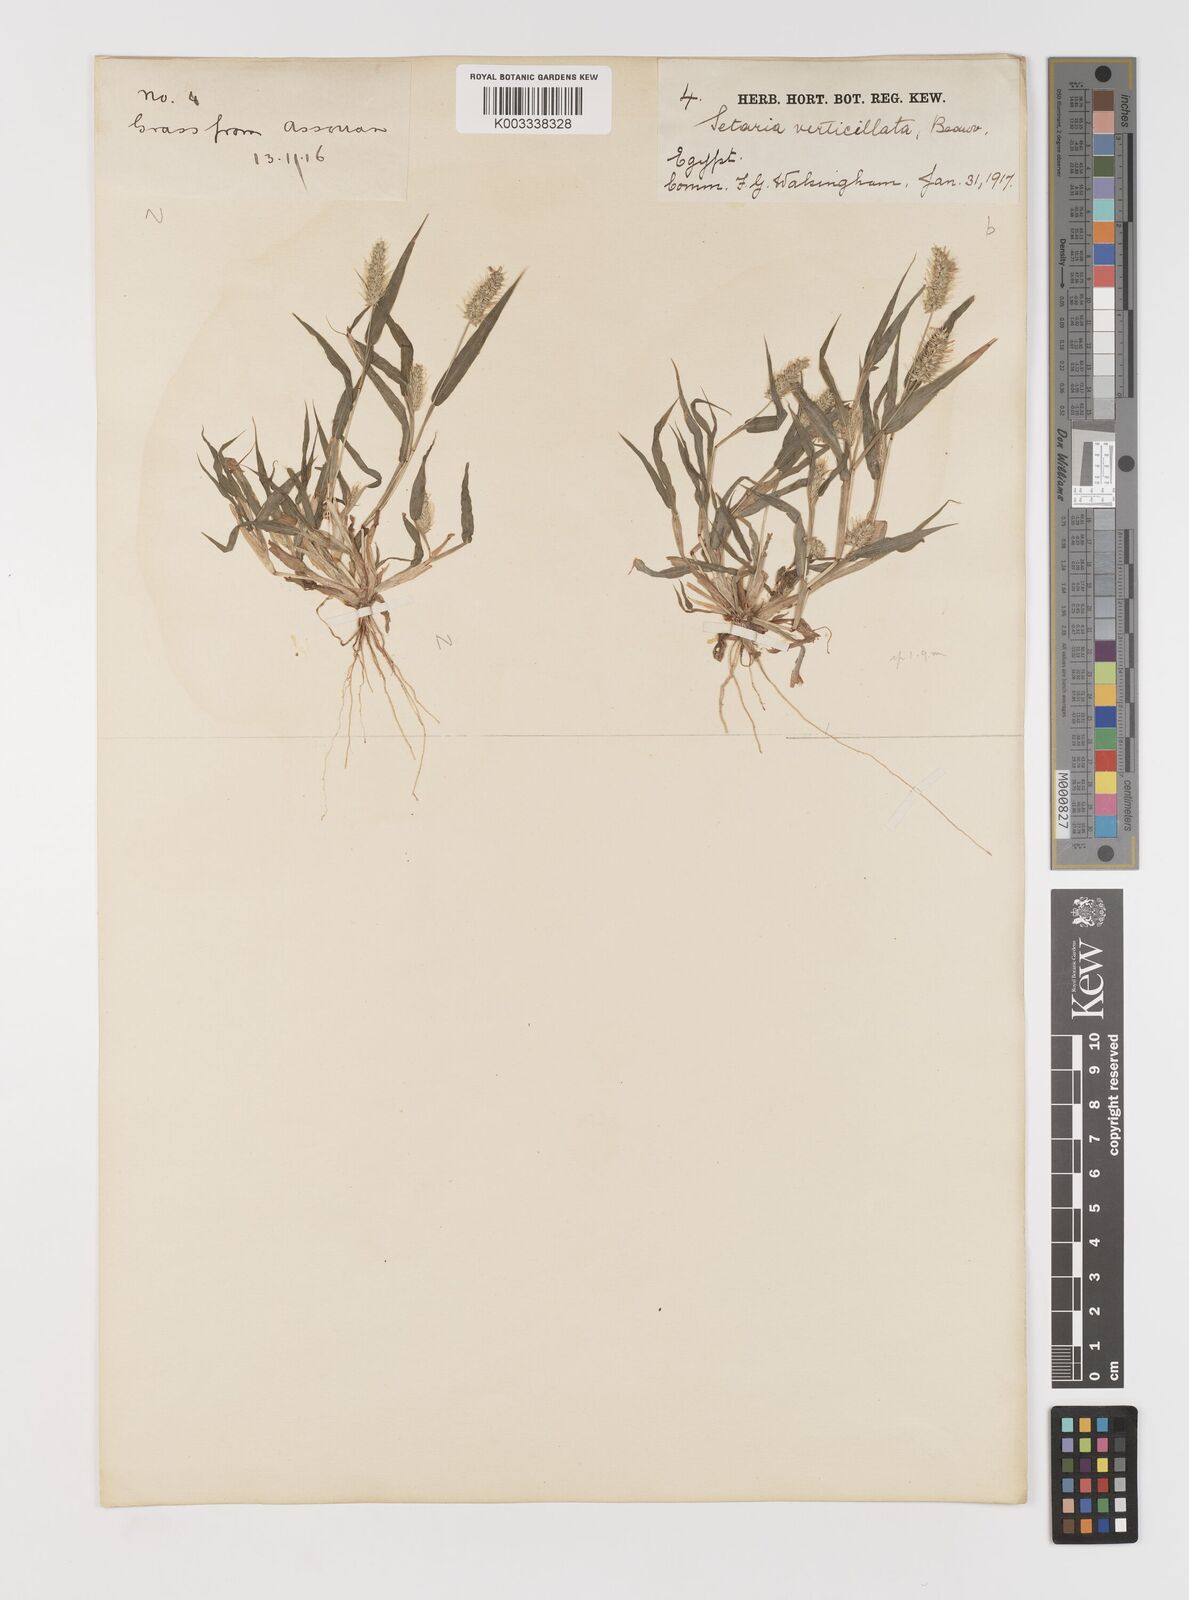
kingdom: Plantae
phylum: Tracheophyta
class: Liliopsida
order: Poales
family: Poaceae
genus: Setaria
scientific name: Setaria verticillata
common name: Hooked bristlegrass
